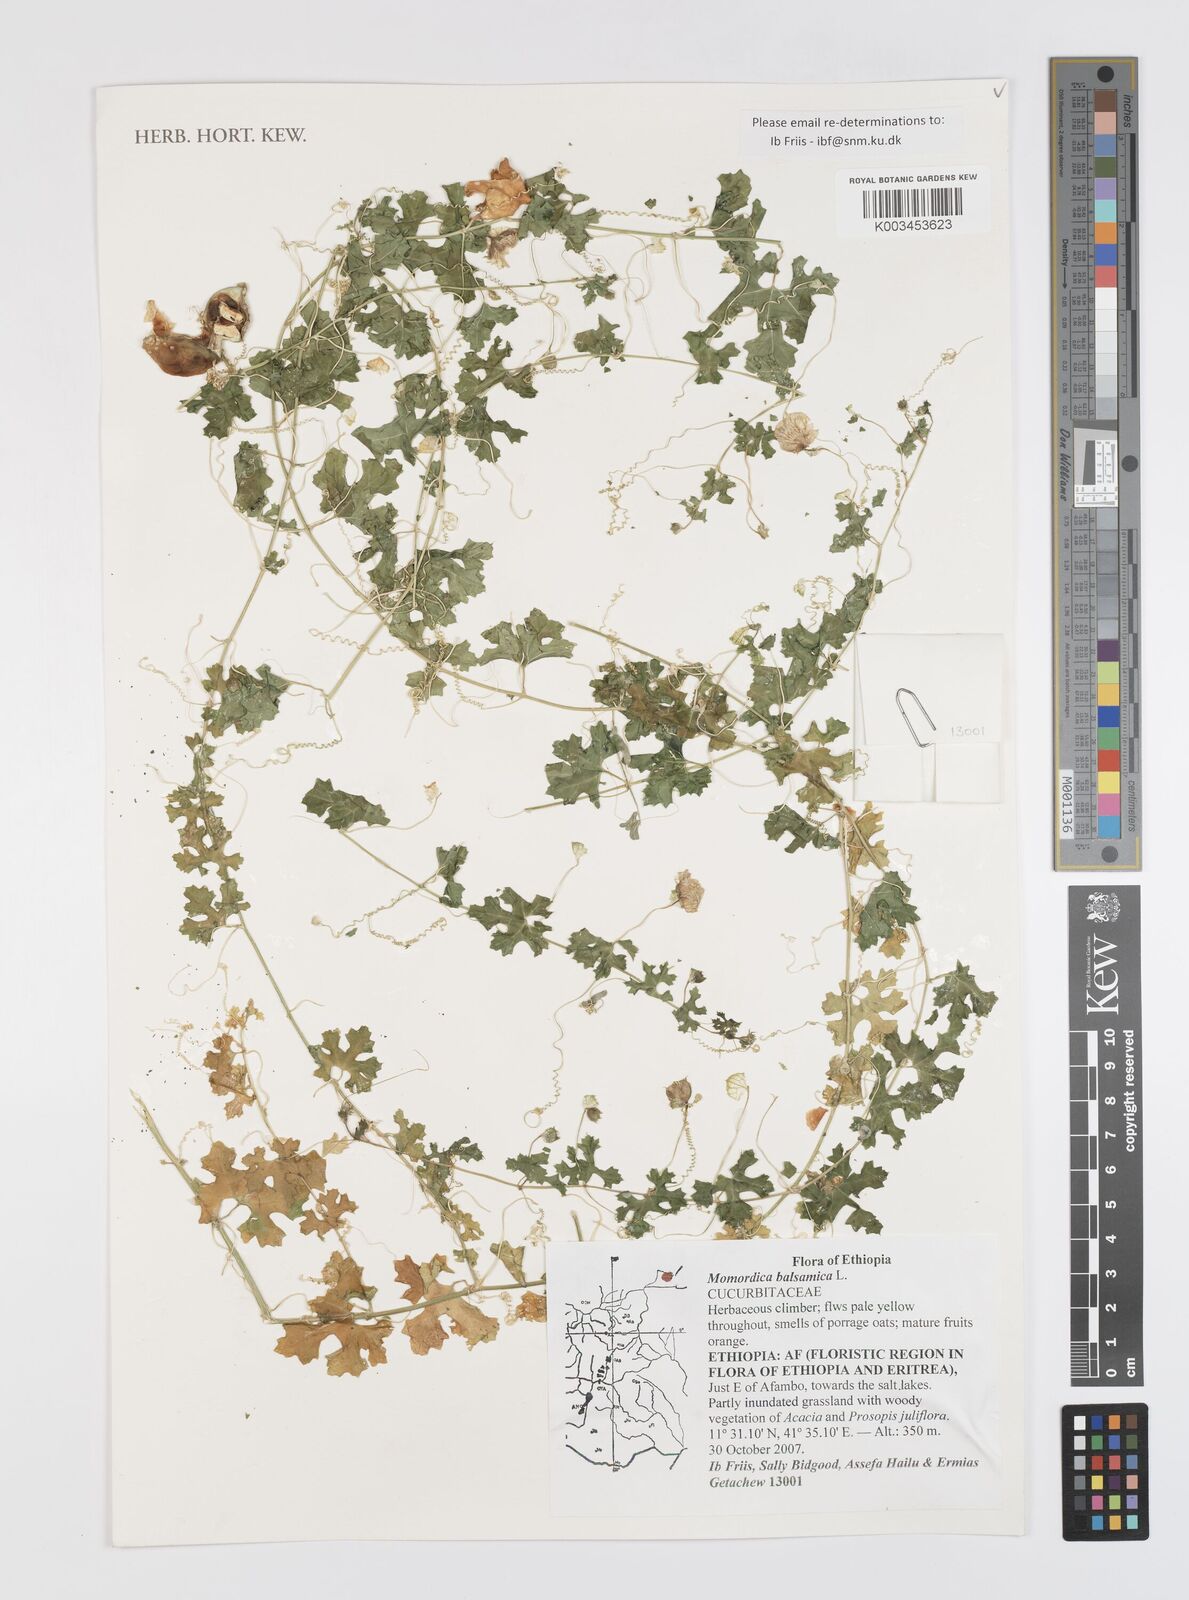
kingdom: Plantae
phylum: Tracheophyta
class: Magnoliopsida
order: Cucurbitales
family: Cucurbitaceae
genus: Momordica
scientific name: Momordica balsamina
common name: Southern balsampear
